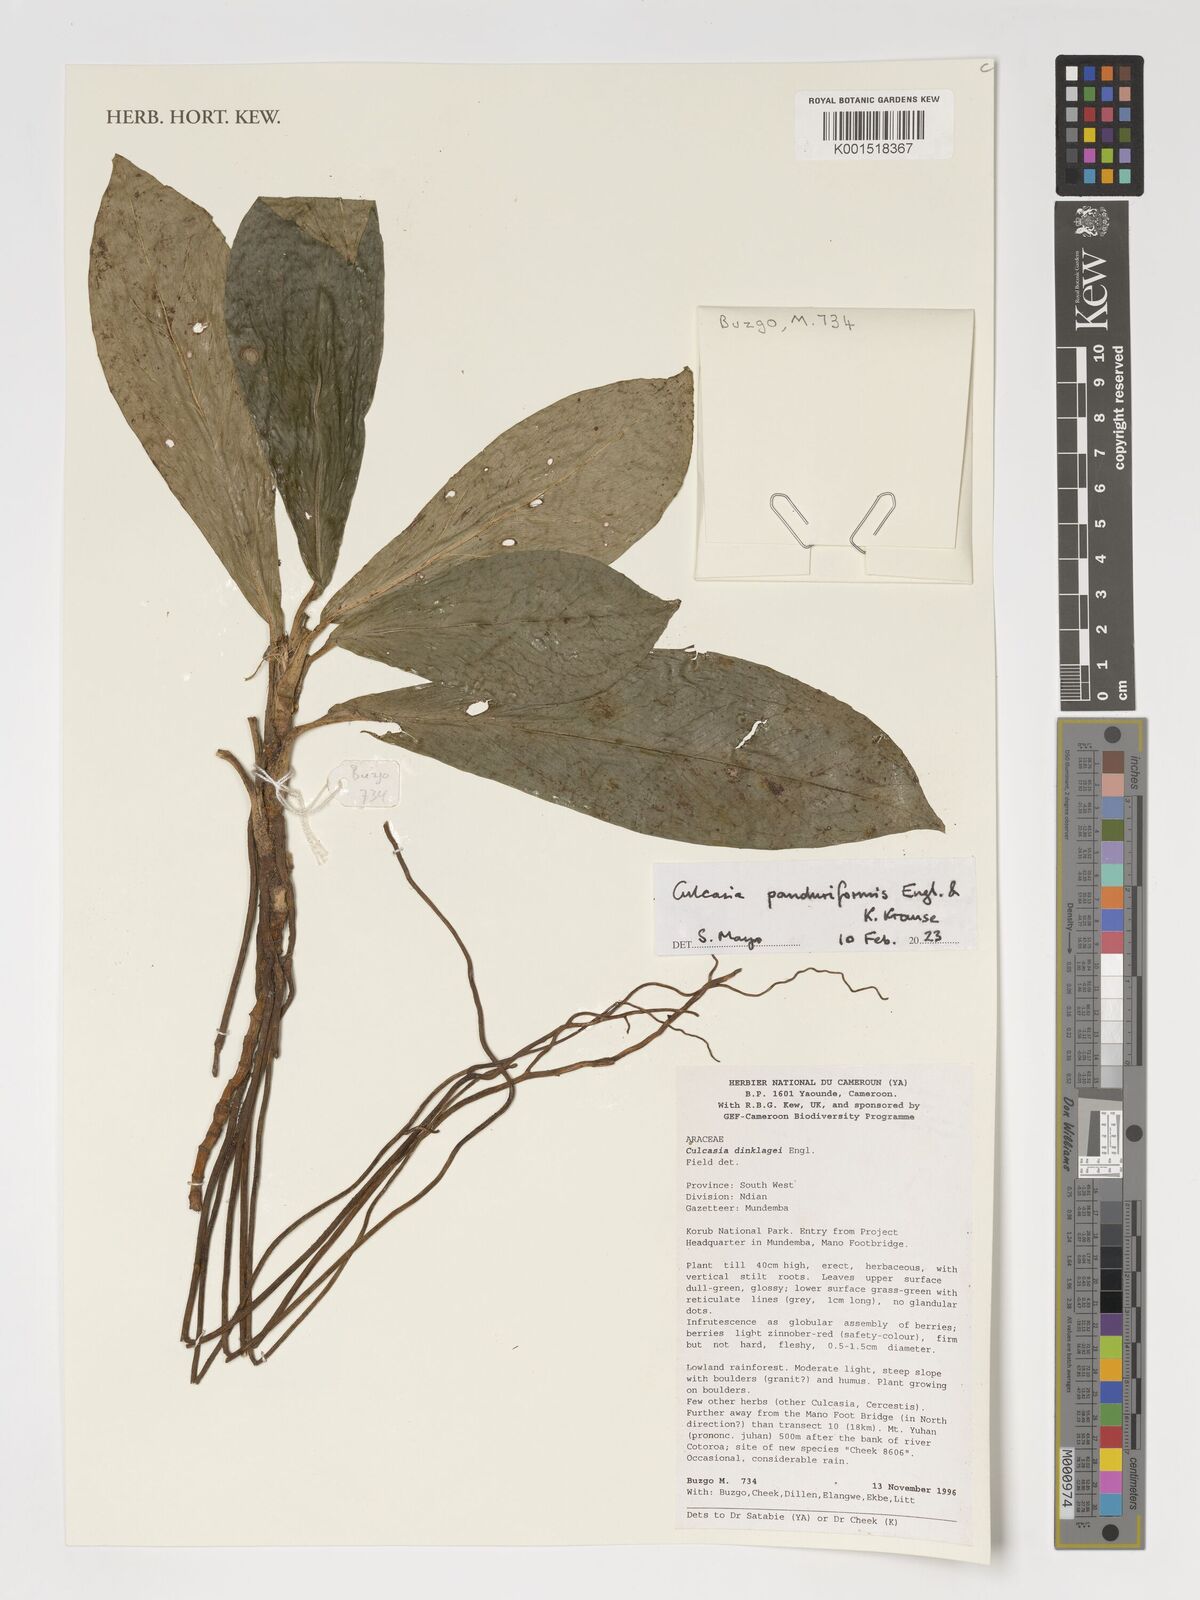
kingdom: Plantae
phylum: Tracheophyta
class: Liliopsida
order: Alismatales
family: Araceae
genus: Culcasia
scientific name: Culcasia panduriformis
